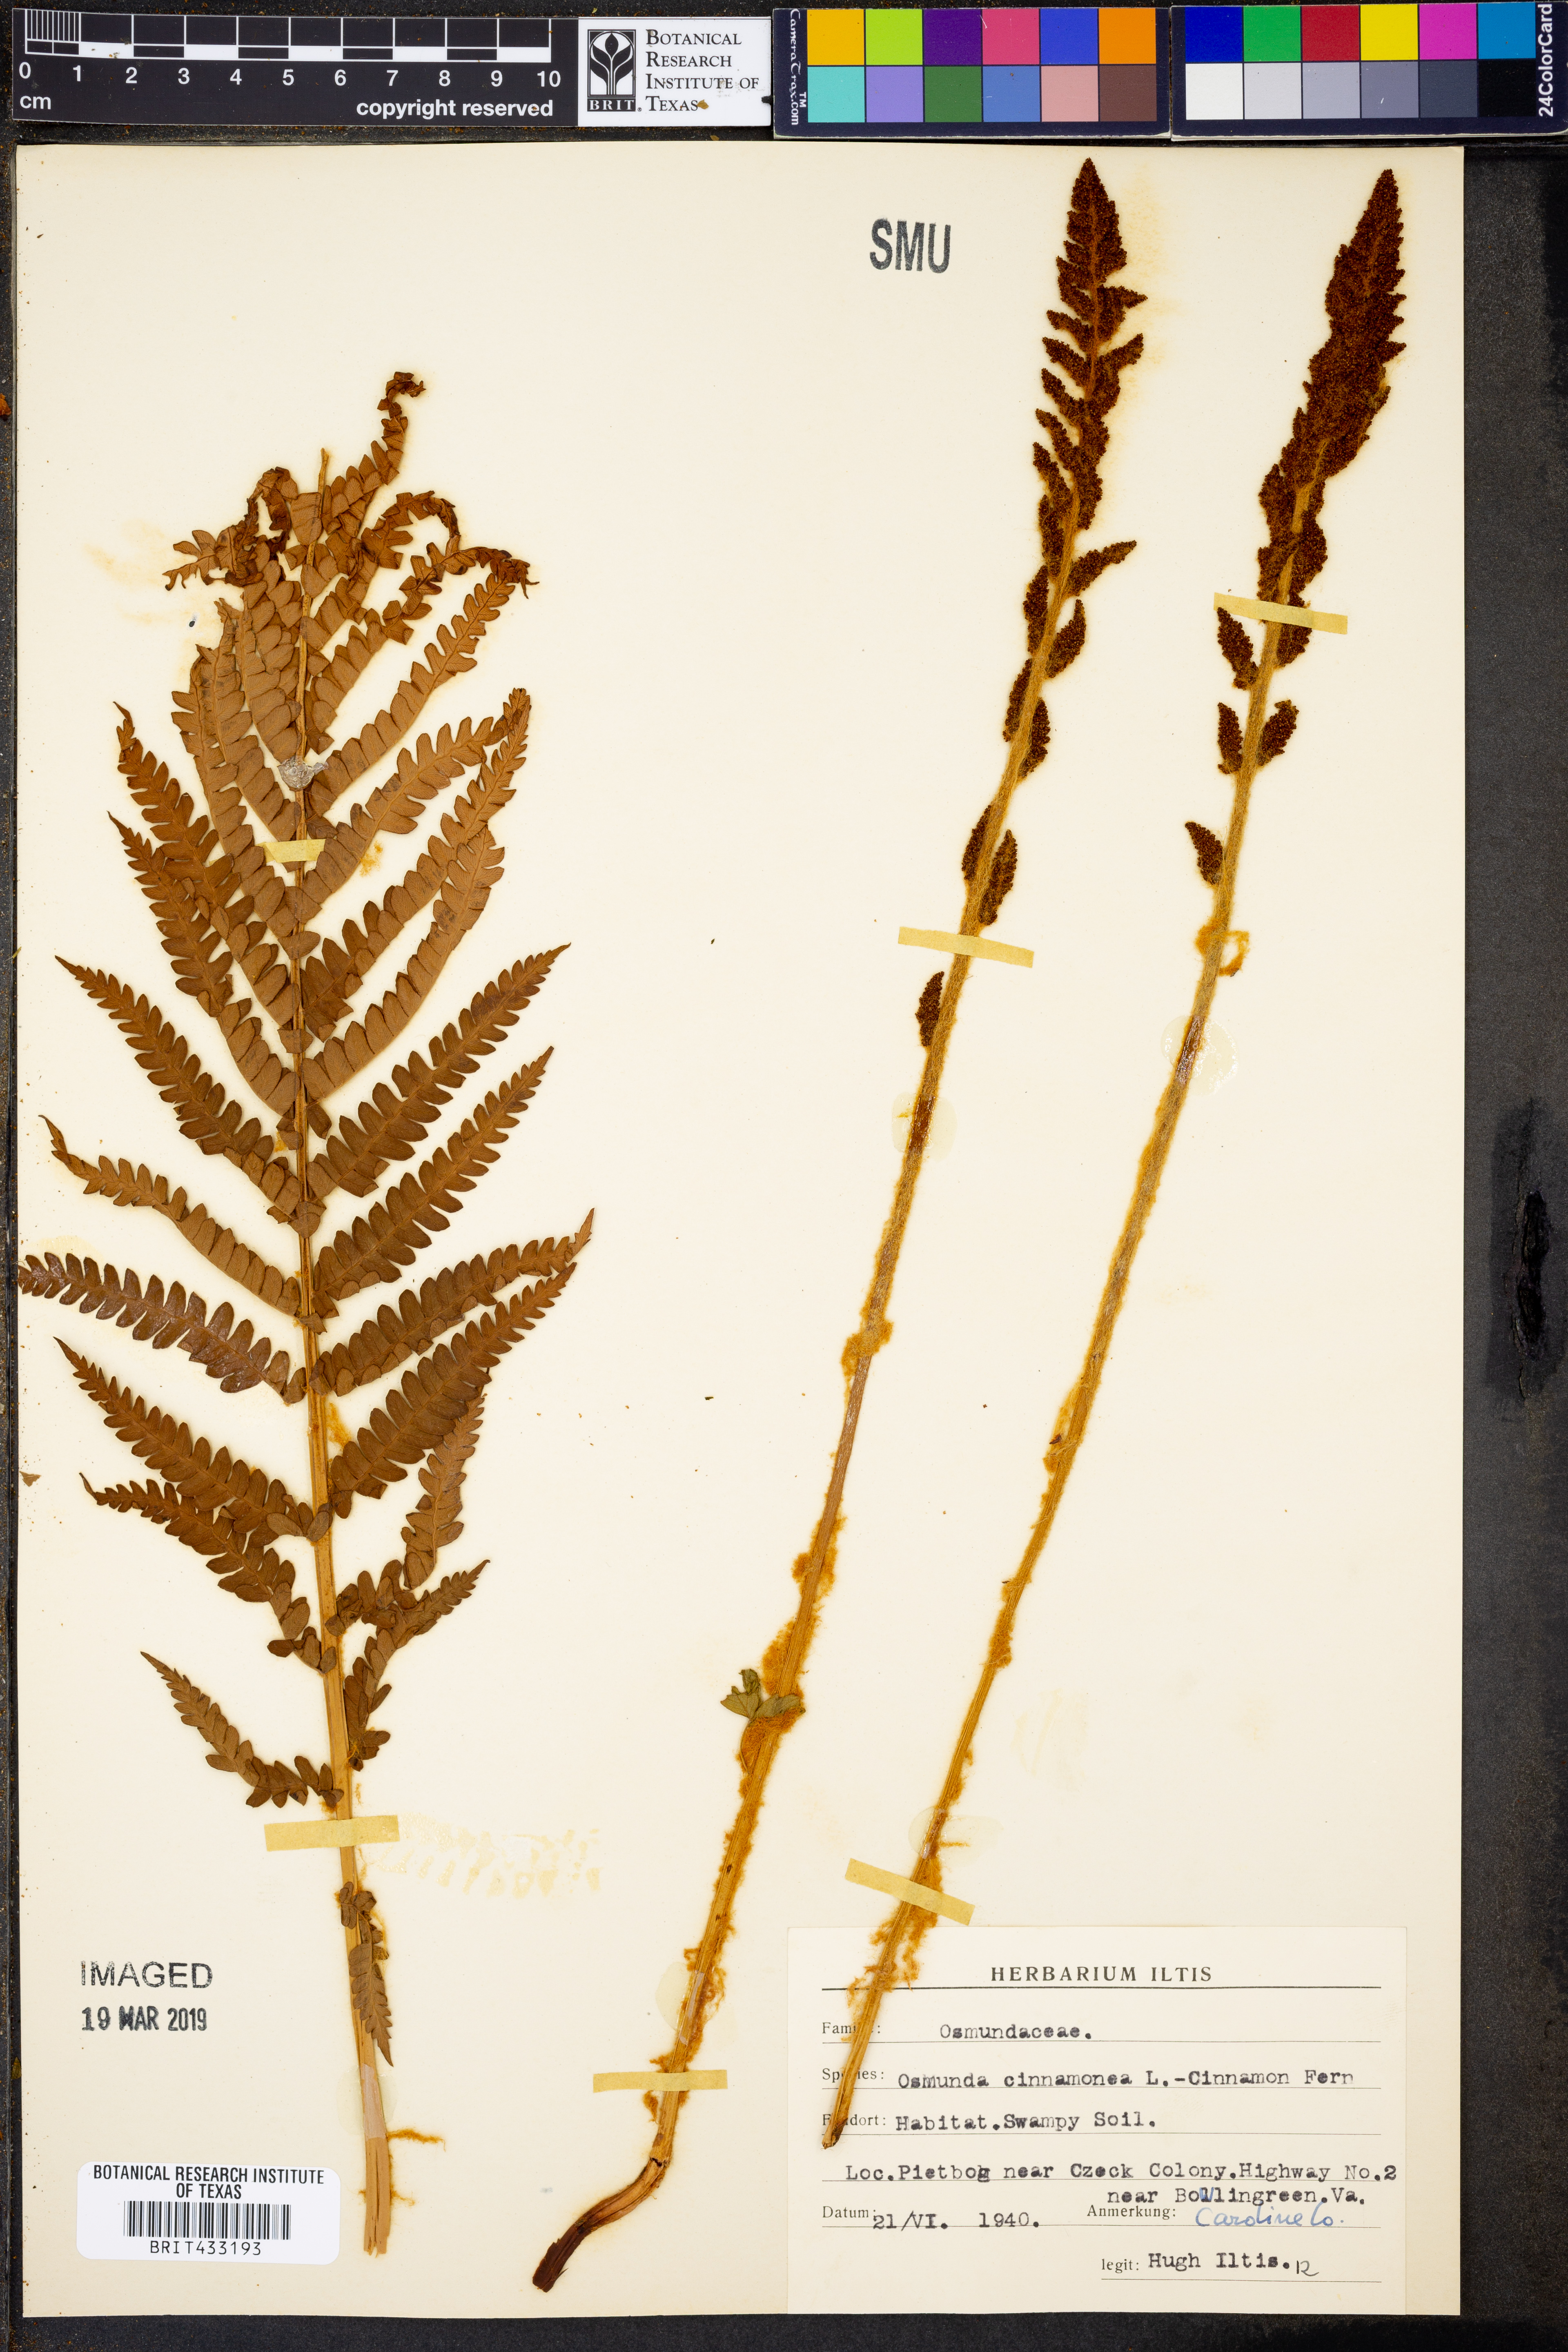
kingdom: Plantae
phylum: Tracheophyta
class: Polypodiopsida
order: Osmundales
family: Osmundaceae
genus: Osmundastrum
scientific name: Osmundastrum cinnamomeum
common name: Cinnamon fern
